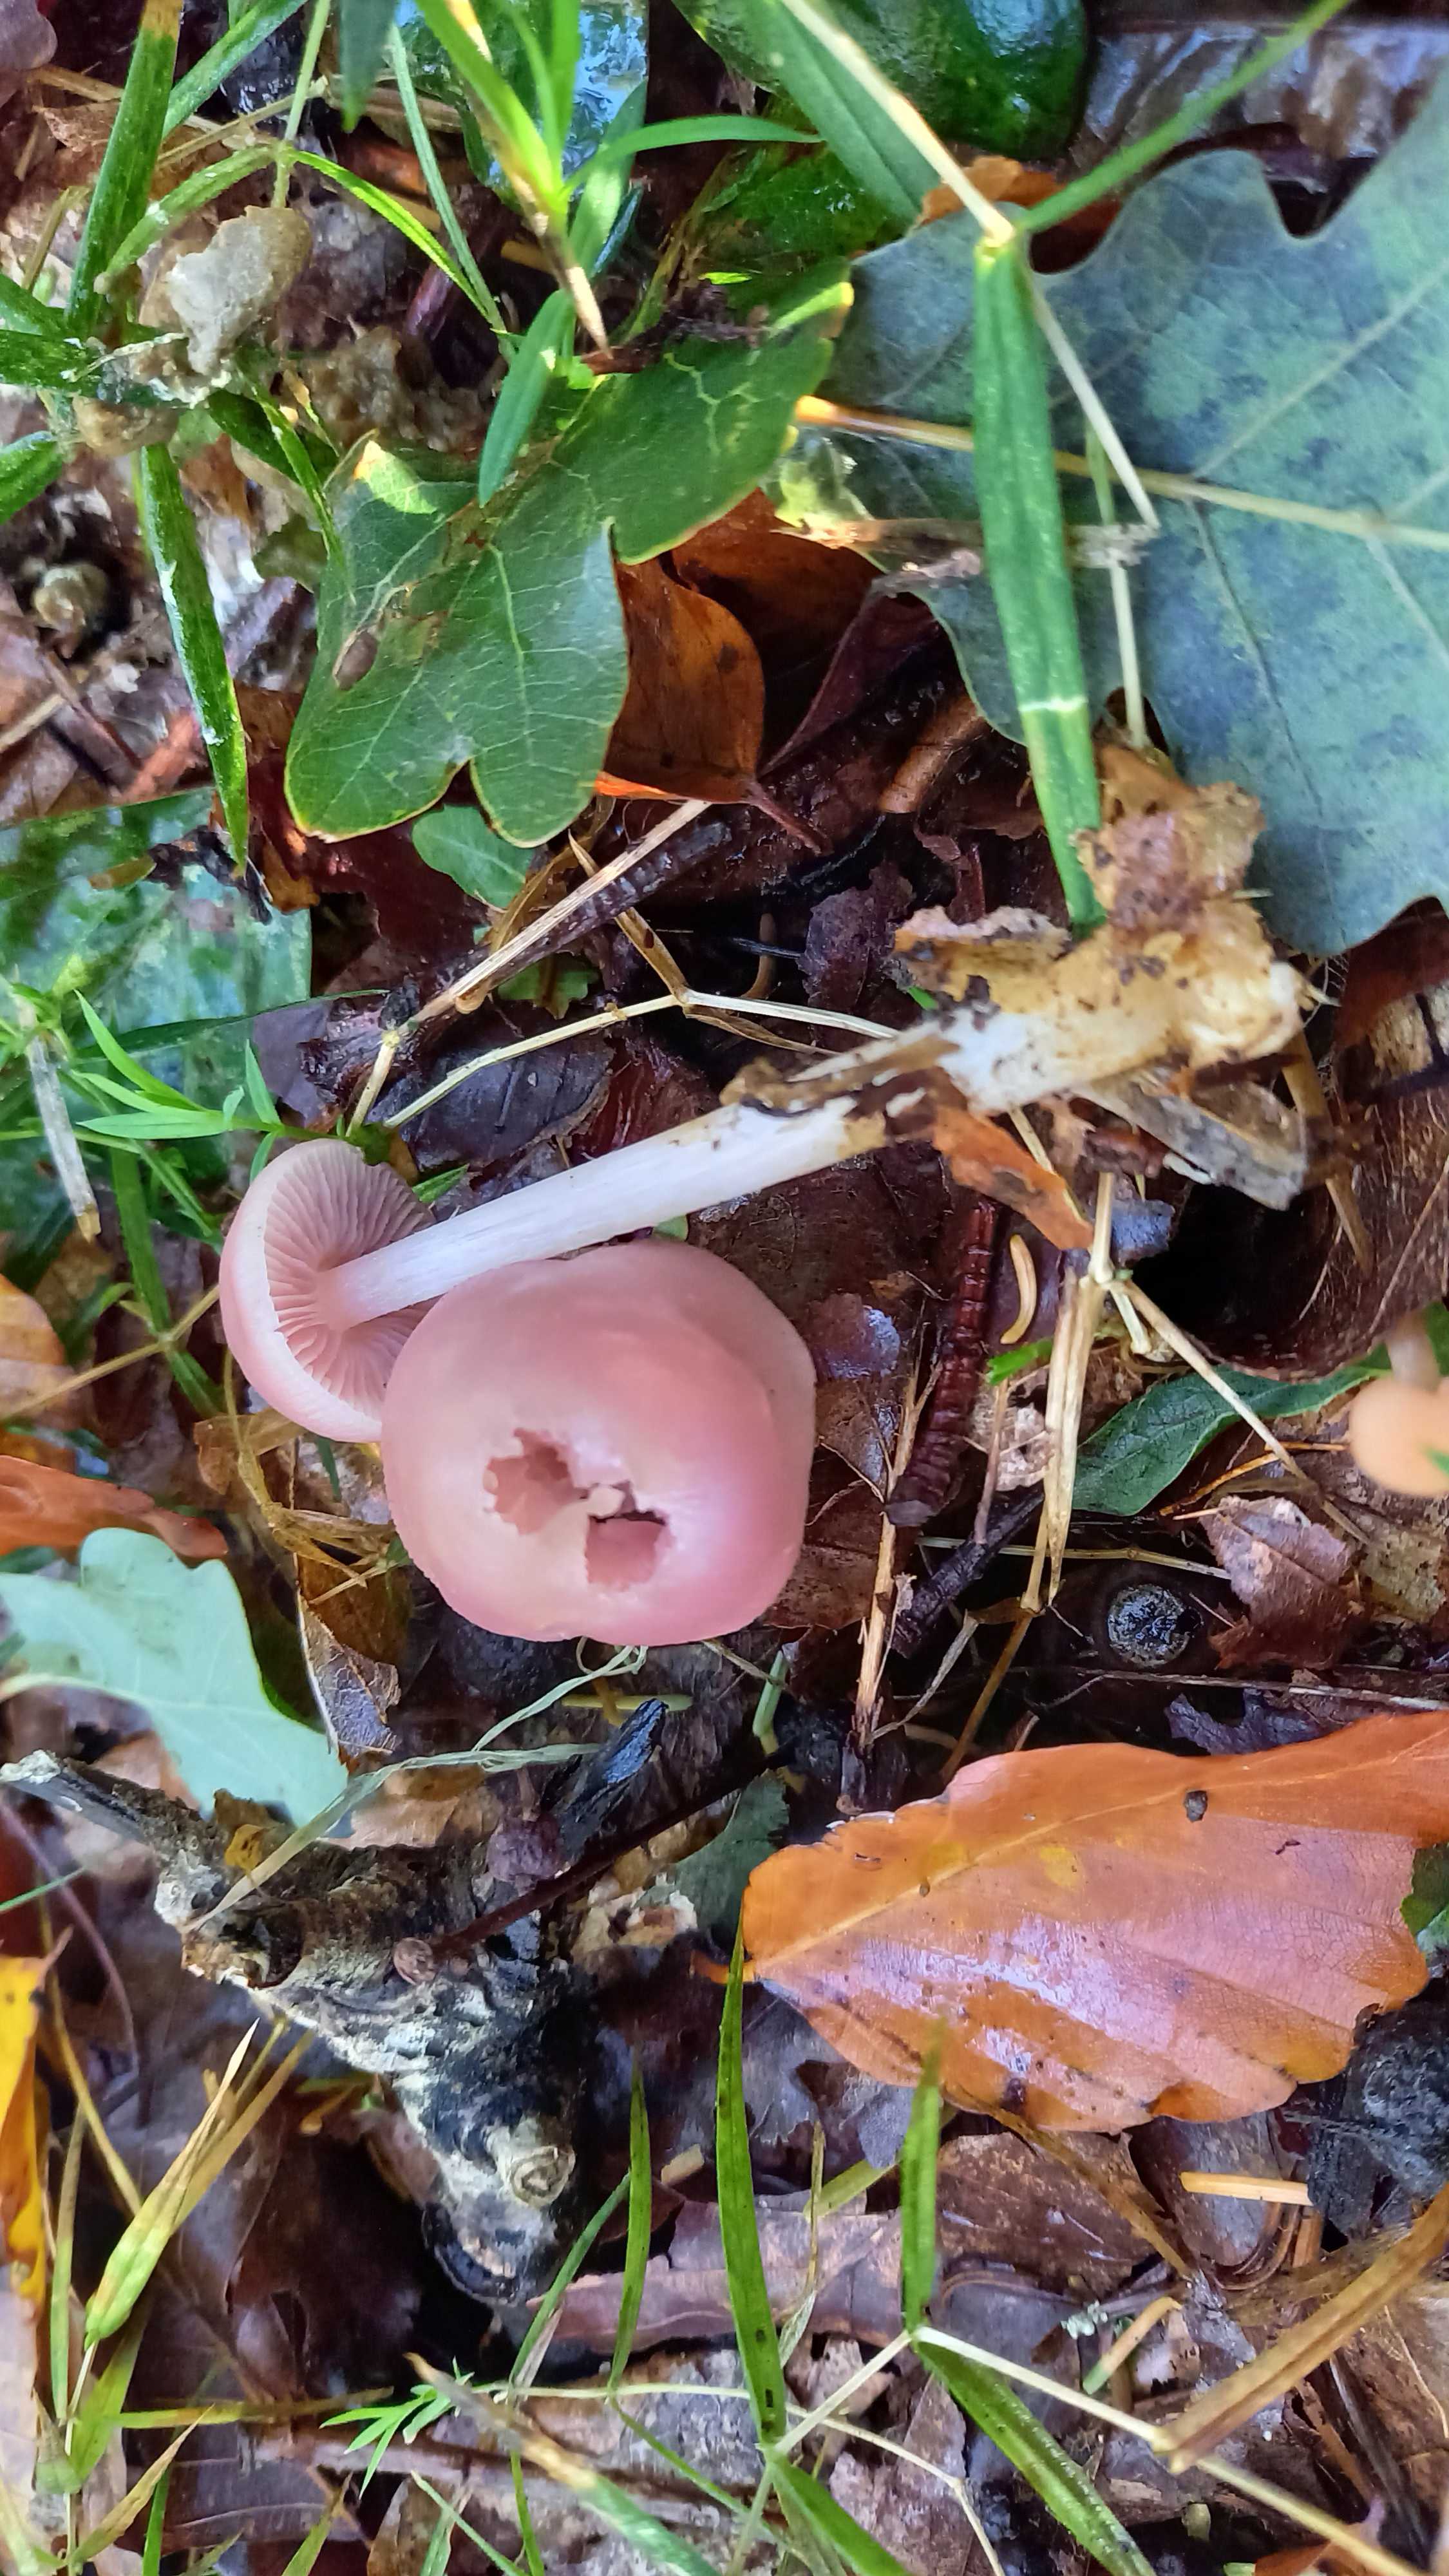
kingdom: Fungi
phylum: Basidiomycota
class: Agaricomycetes
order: Agaricales
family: Mycenaceae
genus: Mycena
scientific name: Mycena rosea
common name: rosa huesvamp
